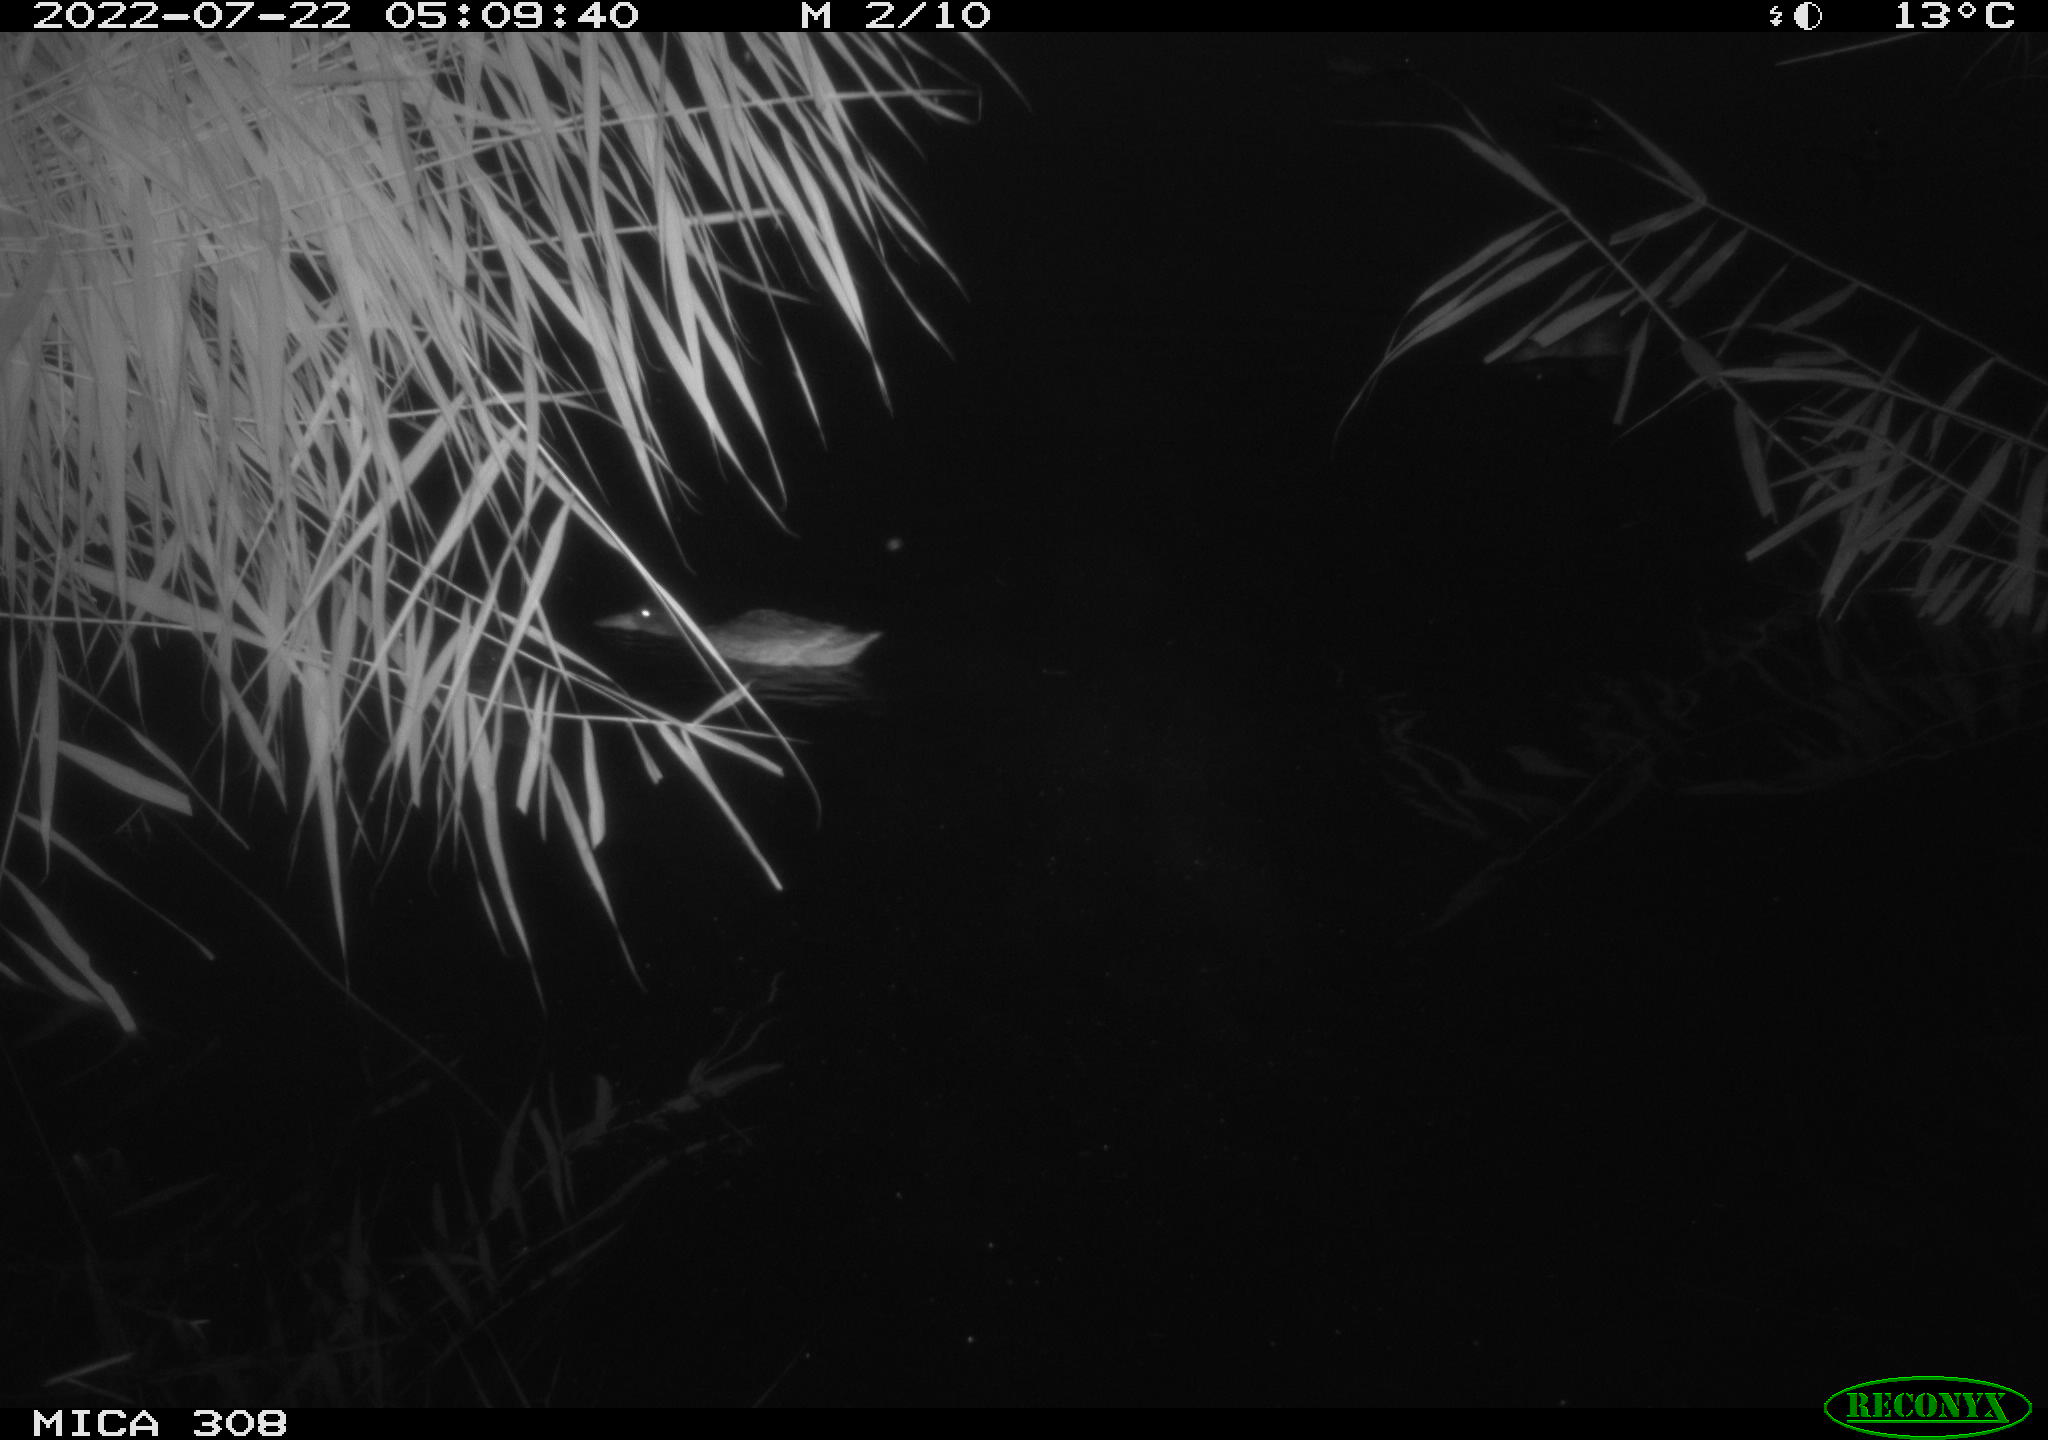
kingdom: Animalia
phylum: Chordata
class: Aves
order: Anseriformes
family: Anatidae
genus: Anas
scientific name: Anas platyrhynchos
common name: Mallard
